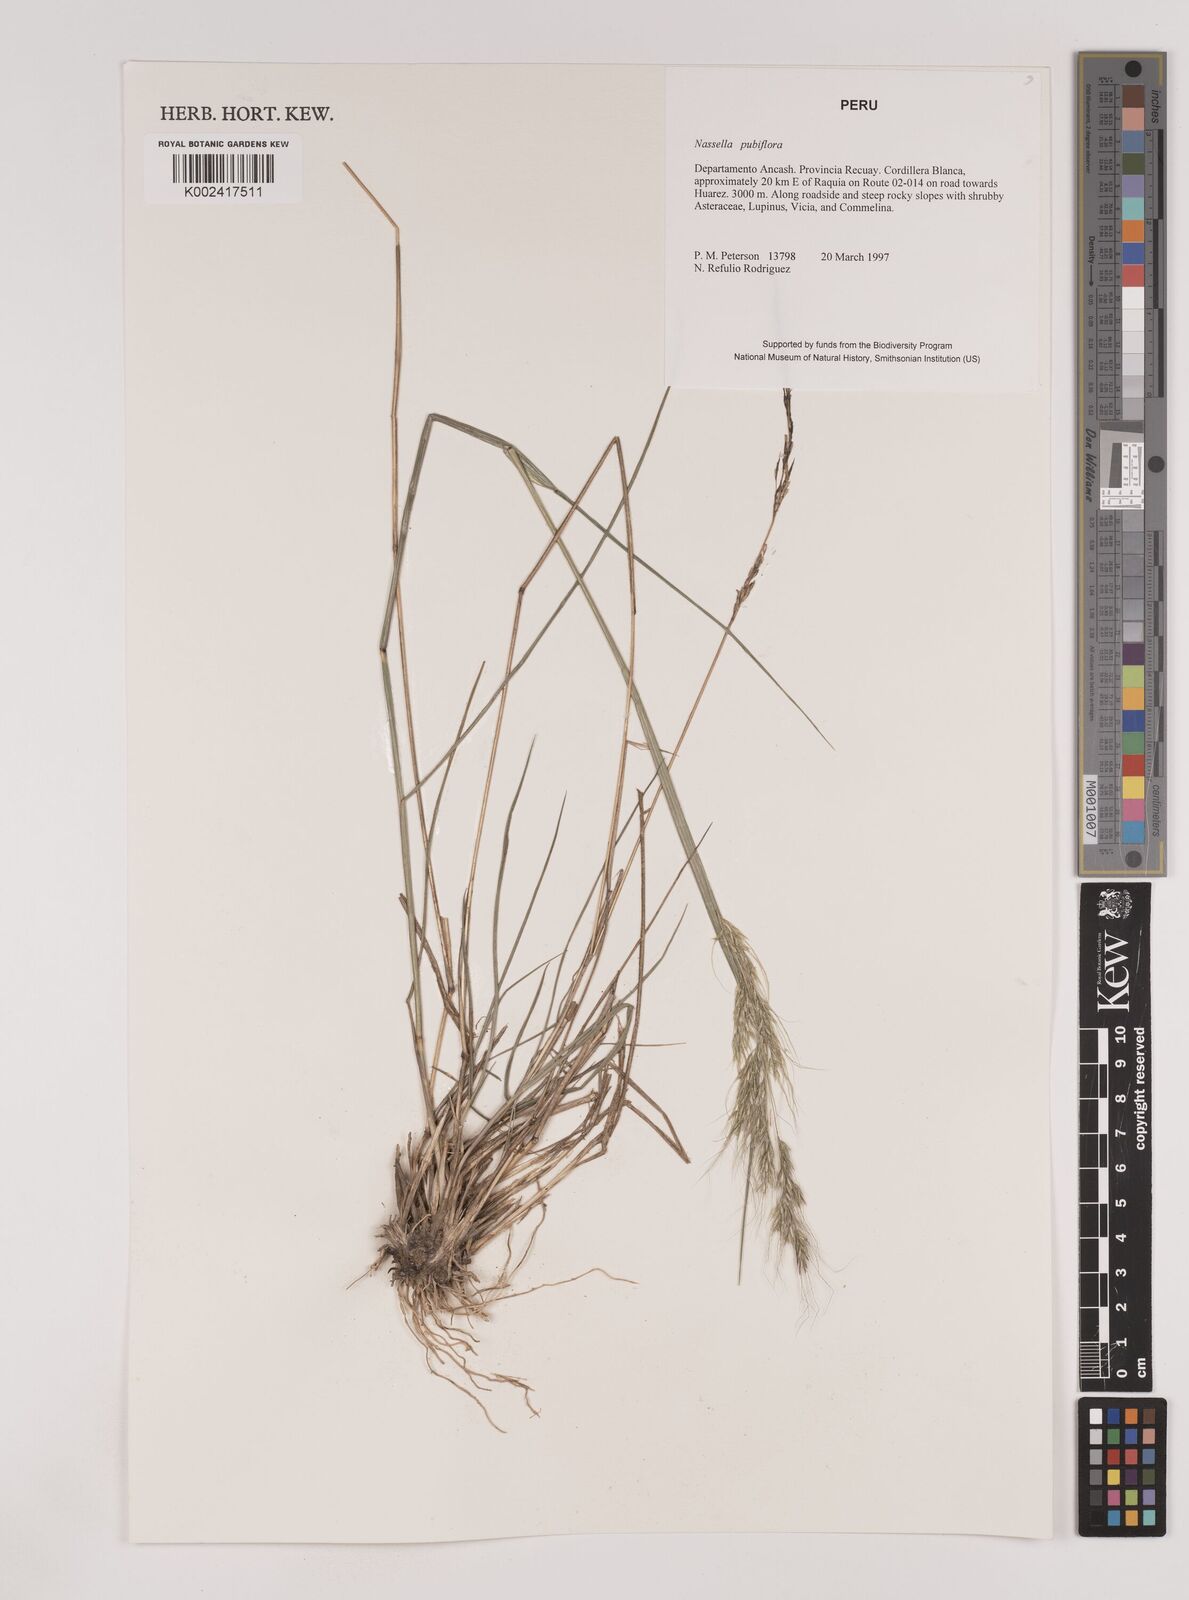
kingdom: Plantae
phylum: Tracheophyta
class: Liliopsida
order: Poales
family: Poaceae
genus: Nassella
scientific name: Nassella pubiflora
